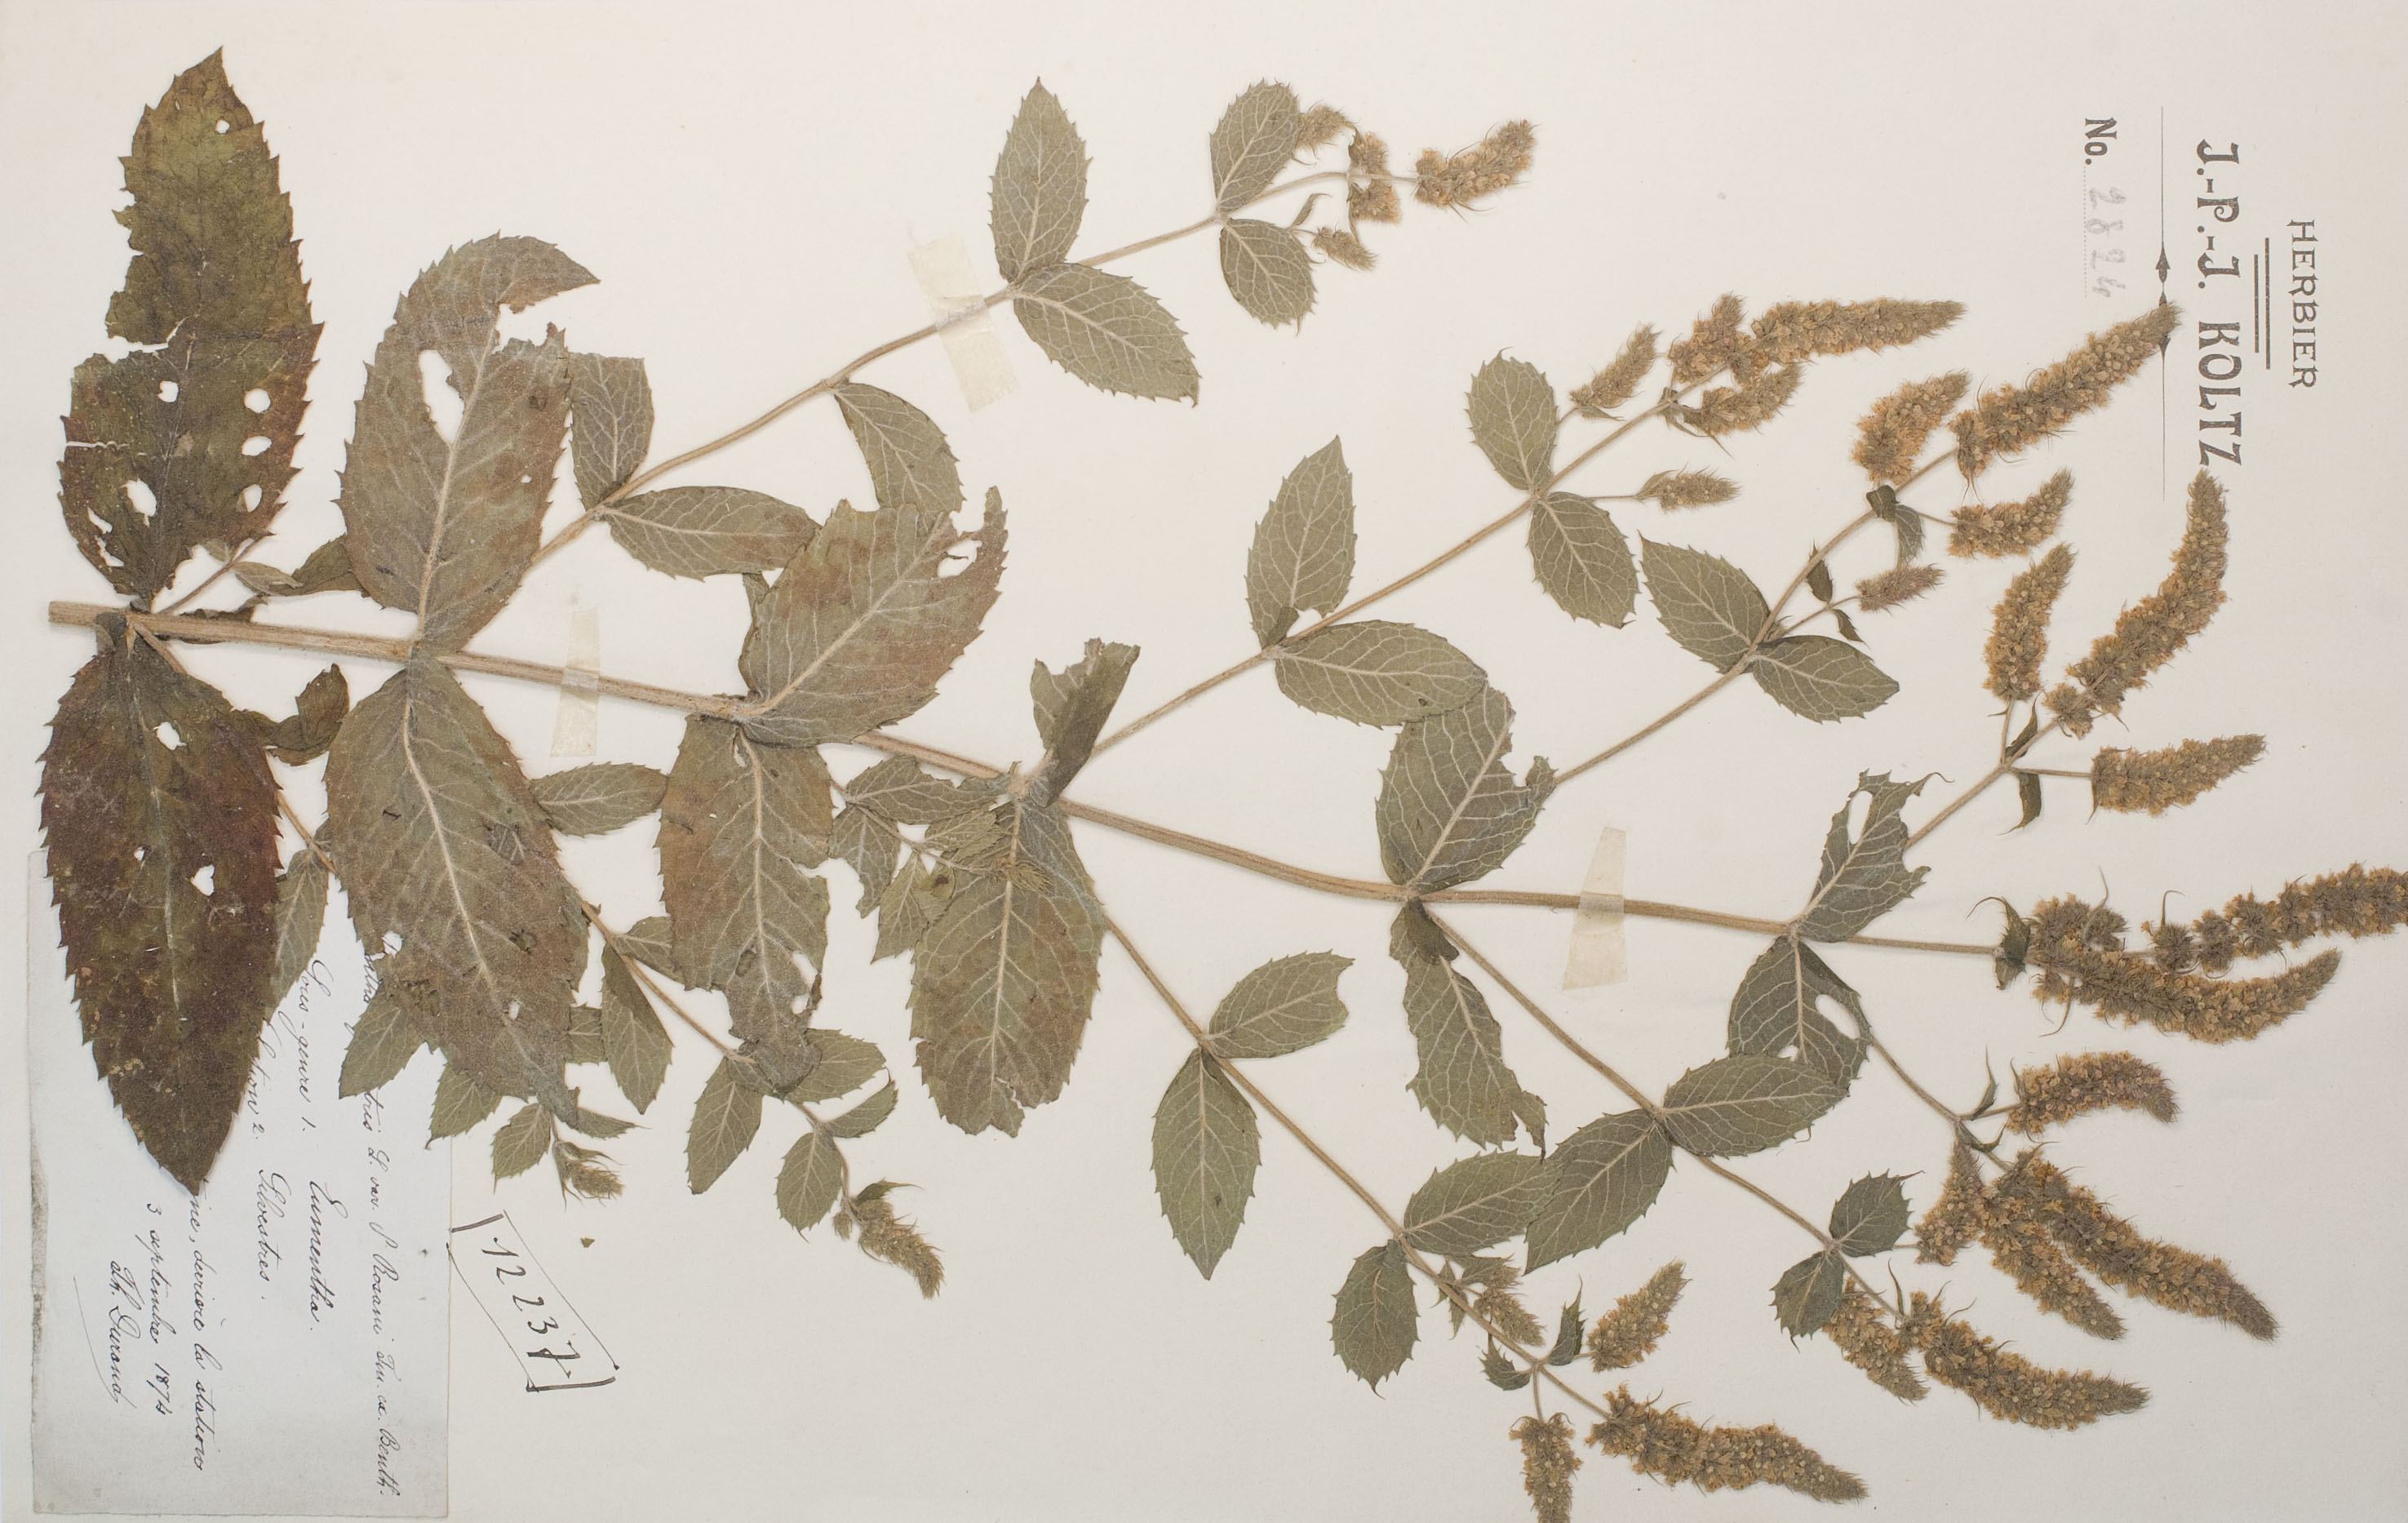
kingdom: Plantae
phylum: Tracheophyta
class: Magnoliopsida
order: Lamiales
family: Lamiaceae
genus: Mentha
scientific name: Mentha longifolia
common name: Horse mint
